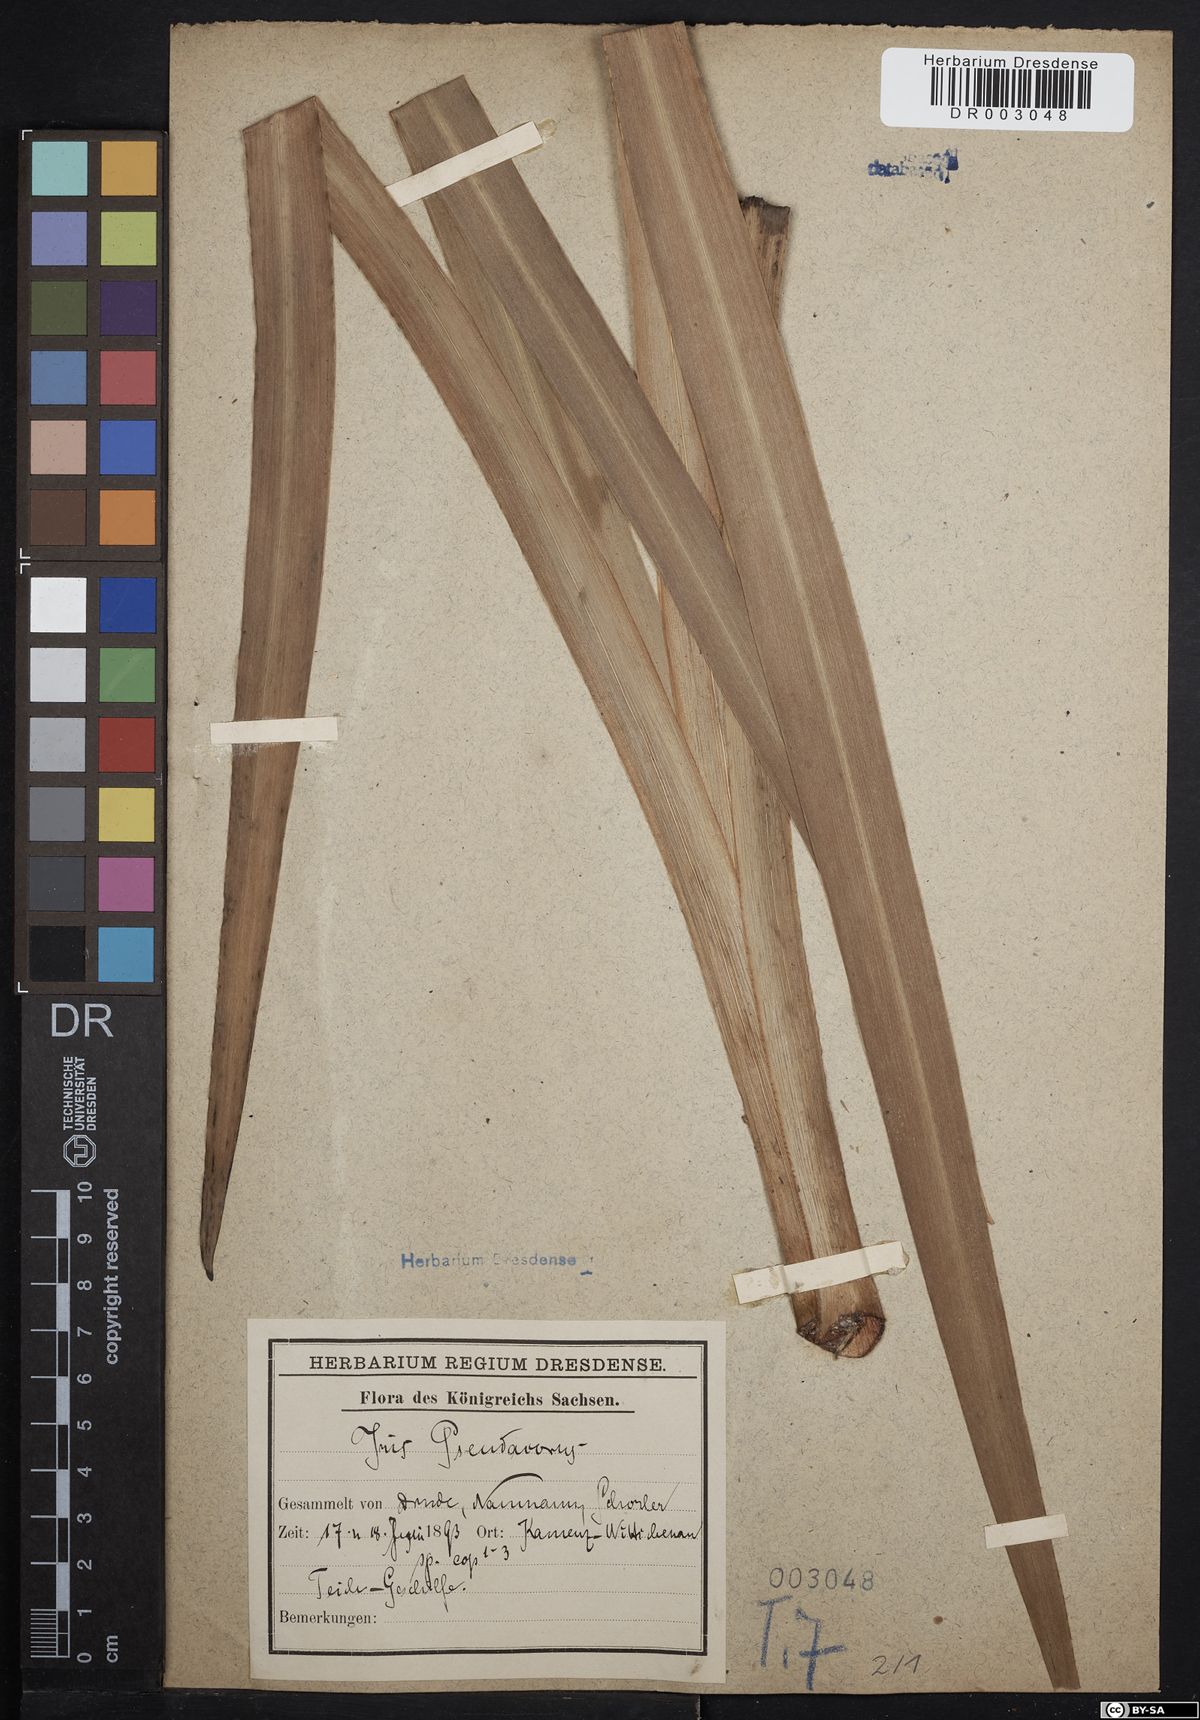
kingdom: Plantae
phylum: Tracheophyta
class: Liliopsida
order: Asparagales
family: Iridaceae
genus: Iris
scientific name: Iris pseudacorus
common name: Yellow flag
